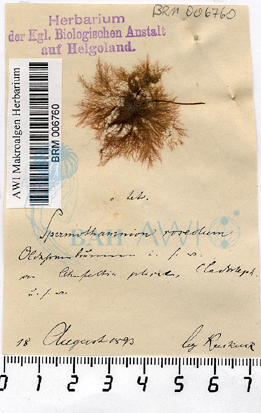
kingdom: Plantae
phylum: Rhodophyta
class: Florideophyceae
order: Ceramiales
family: Wrangeliaceae
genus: Spermothamnion
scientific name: Spermothamnion repens
